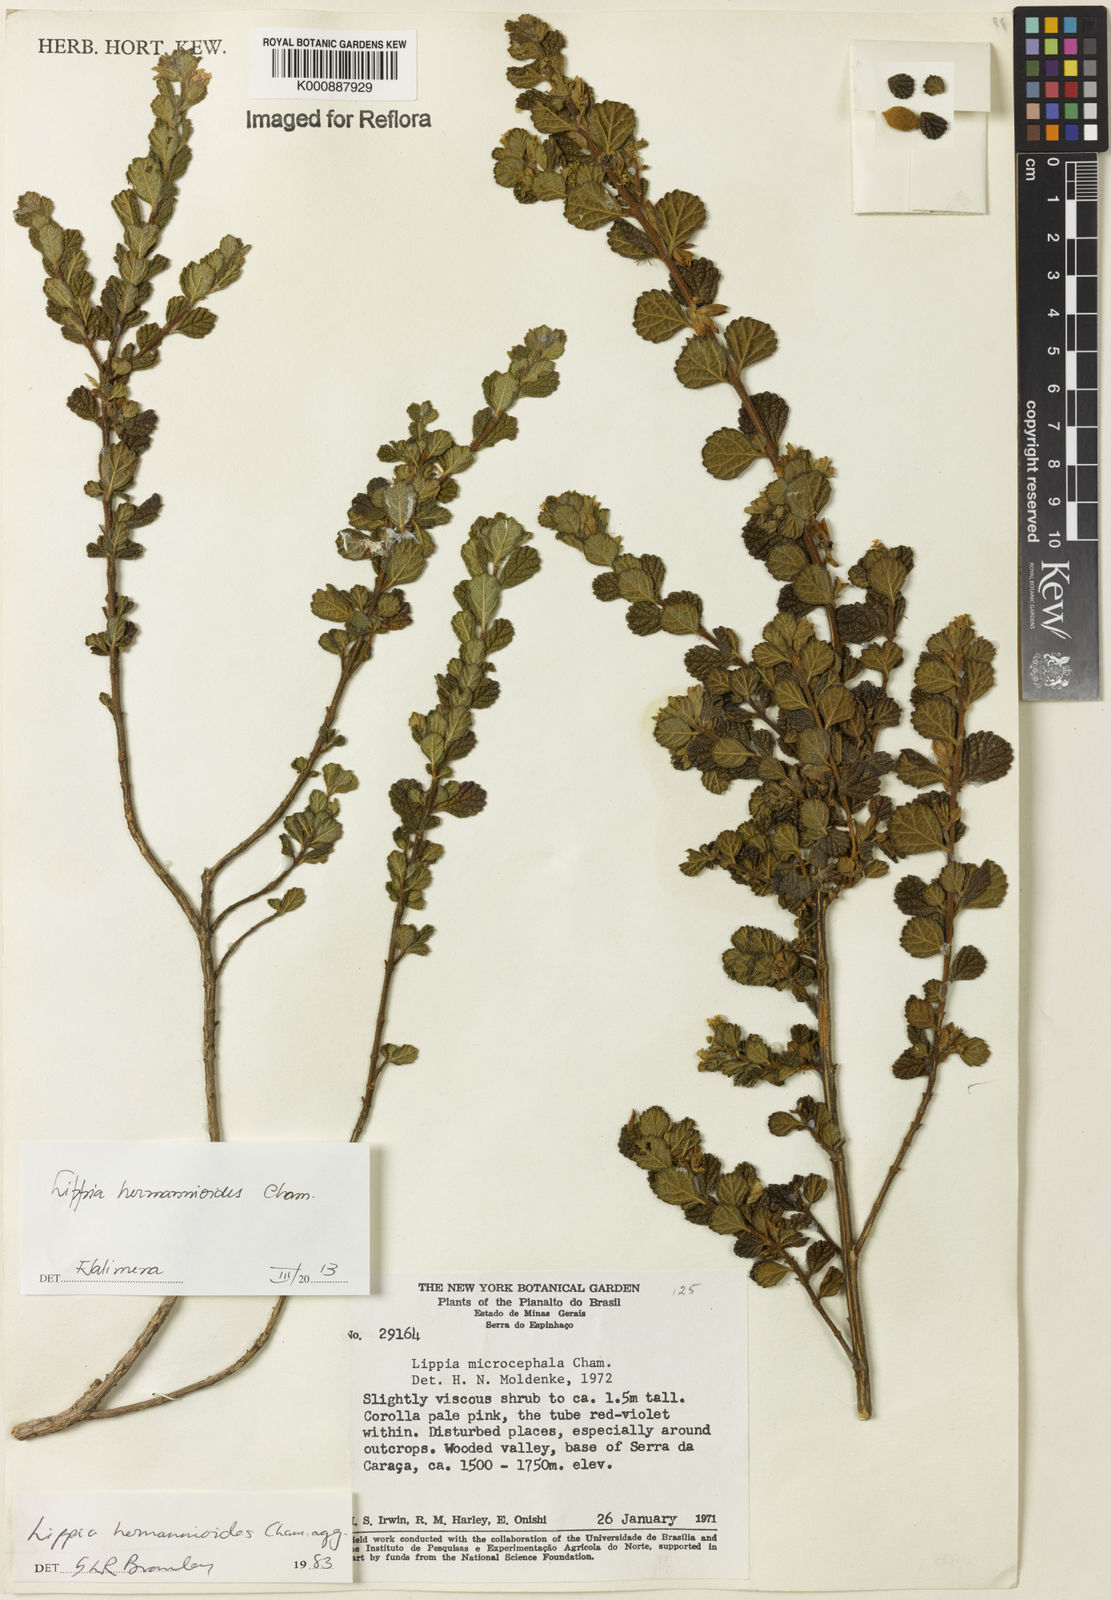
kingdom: Plantae
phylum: Tracheophyta
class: Magnoliopsida
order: Lamiales
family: Verbenaceae
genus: Lippia
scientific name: Lippia hermannioides
